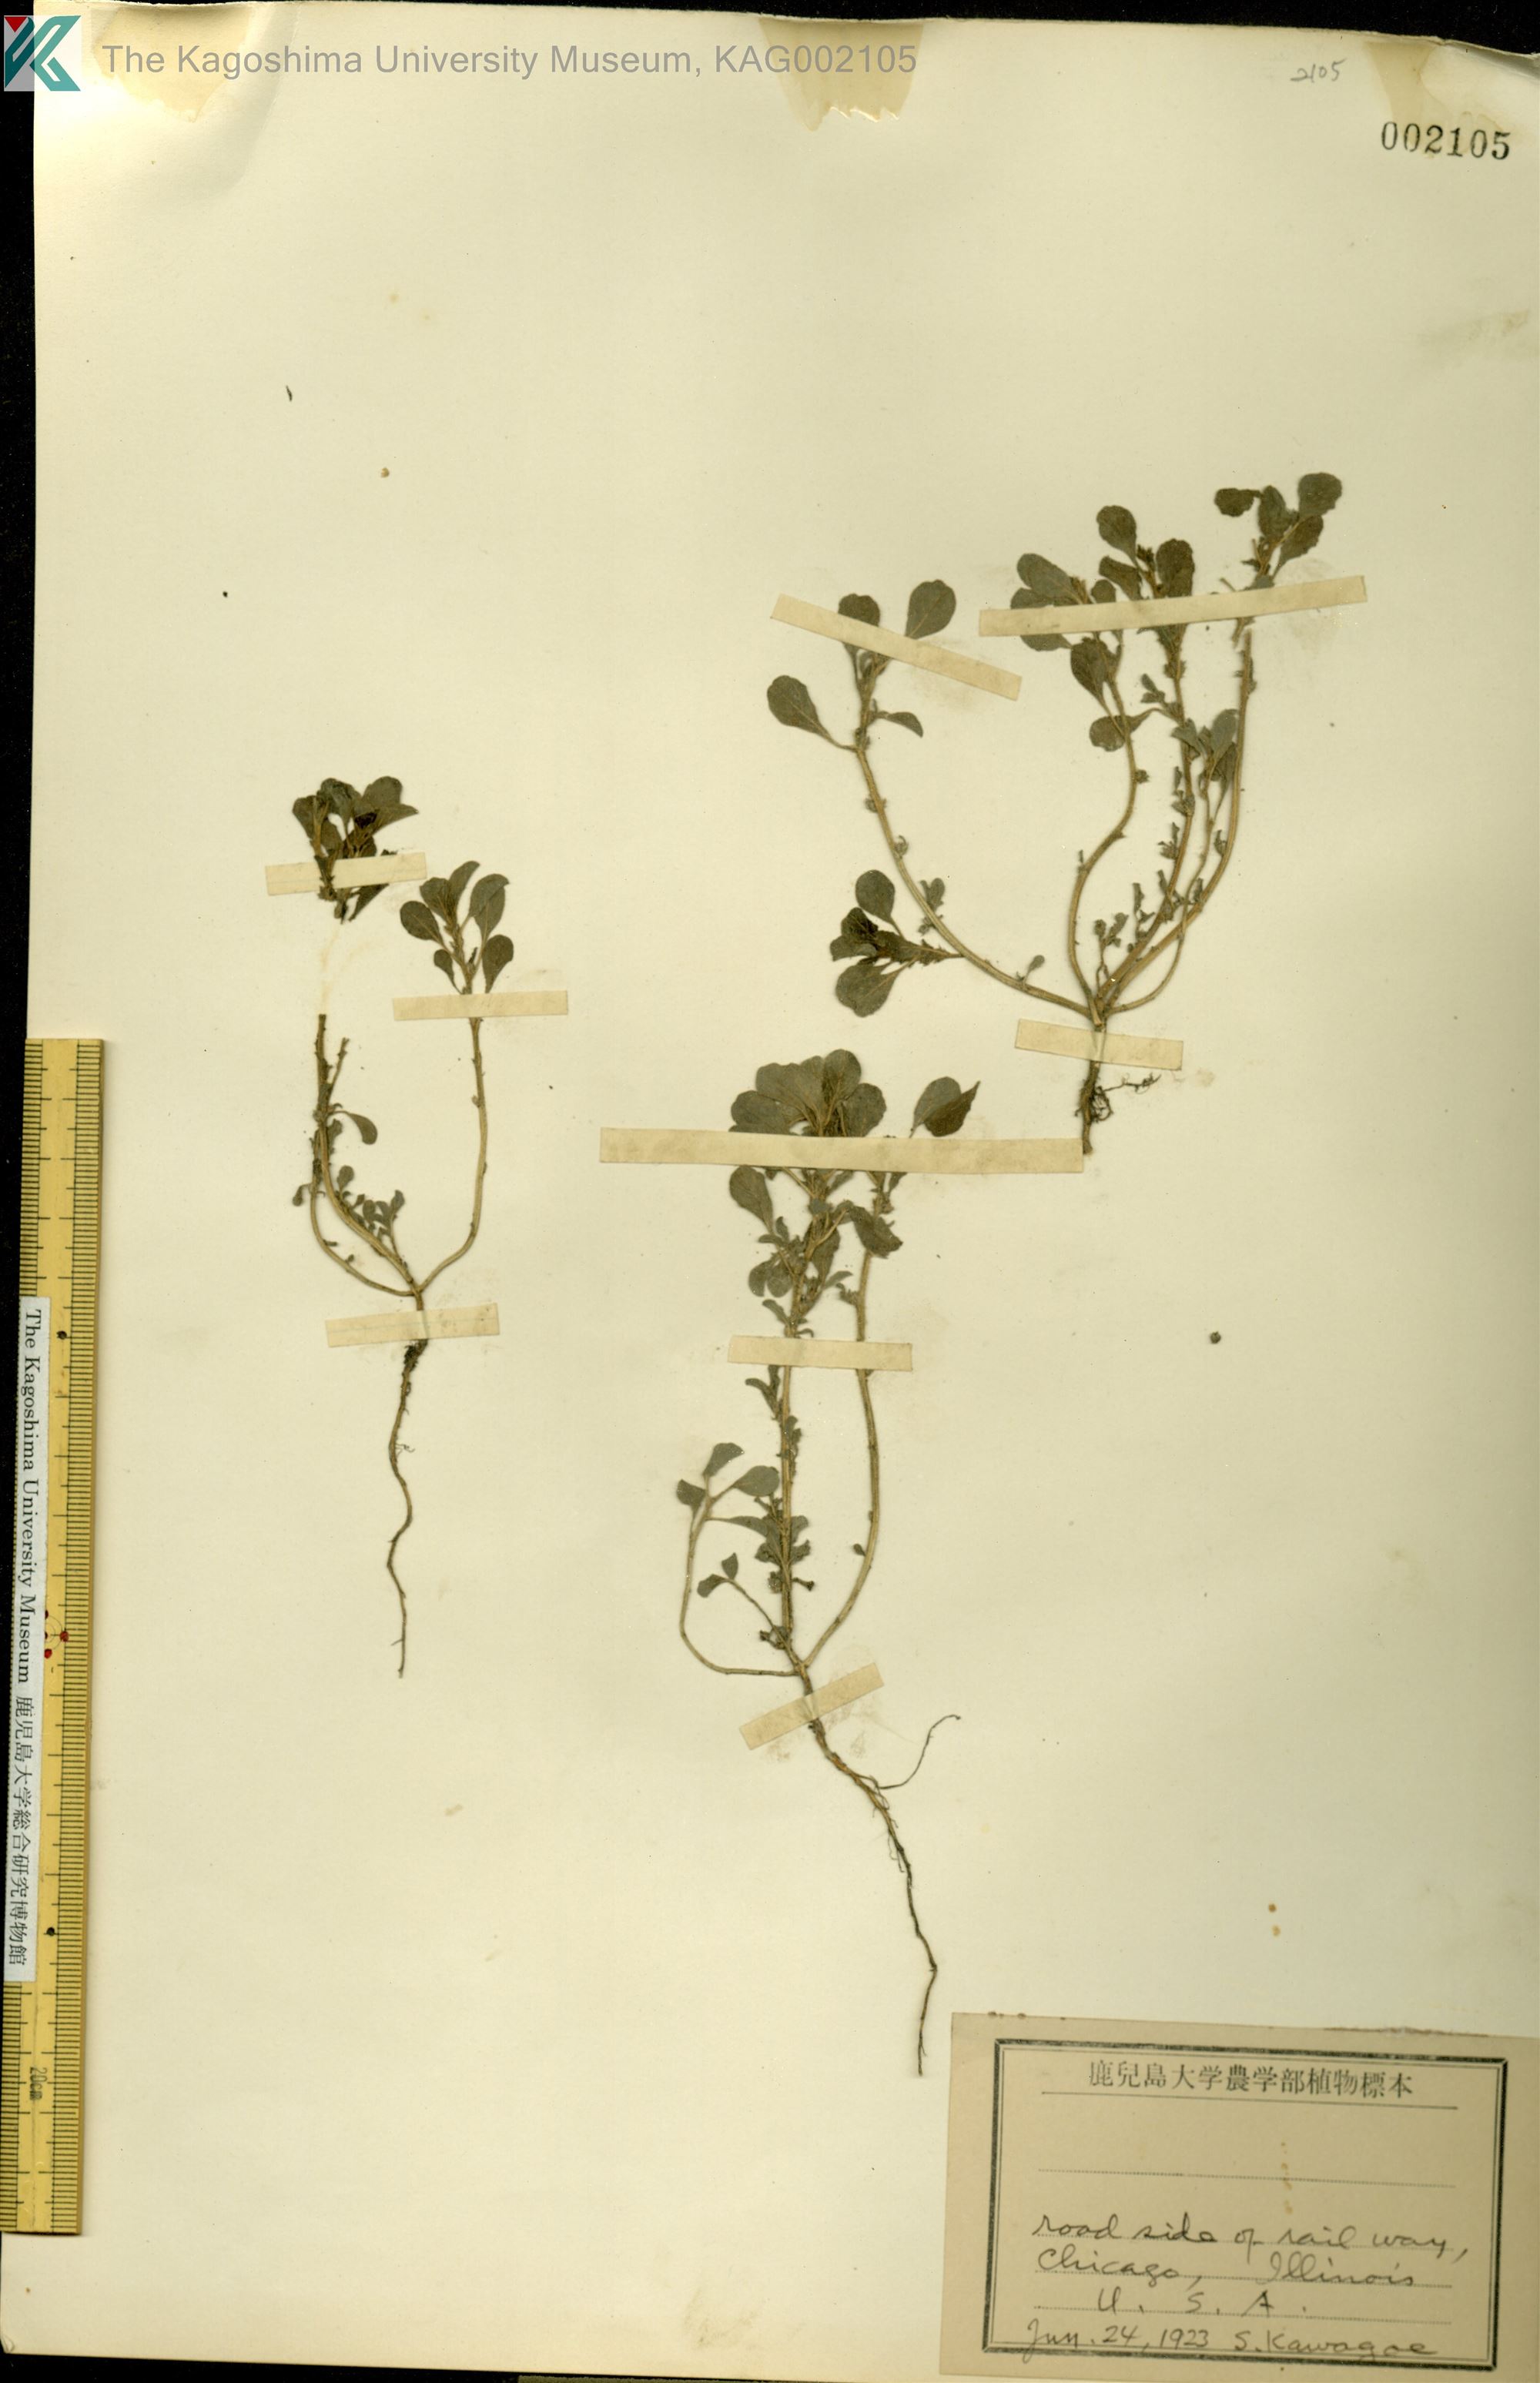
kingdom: Plantae
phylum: Tracheophyta
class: Magnoliopsida
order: Caryophyllales
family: Amaranthaceae
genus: Amaranthus
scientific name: Amaranthus
